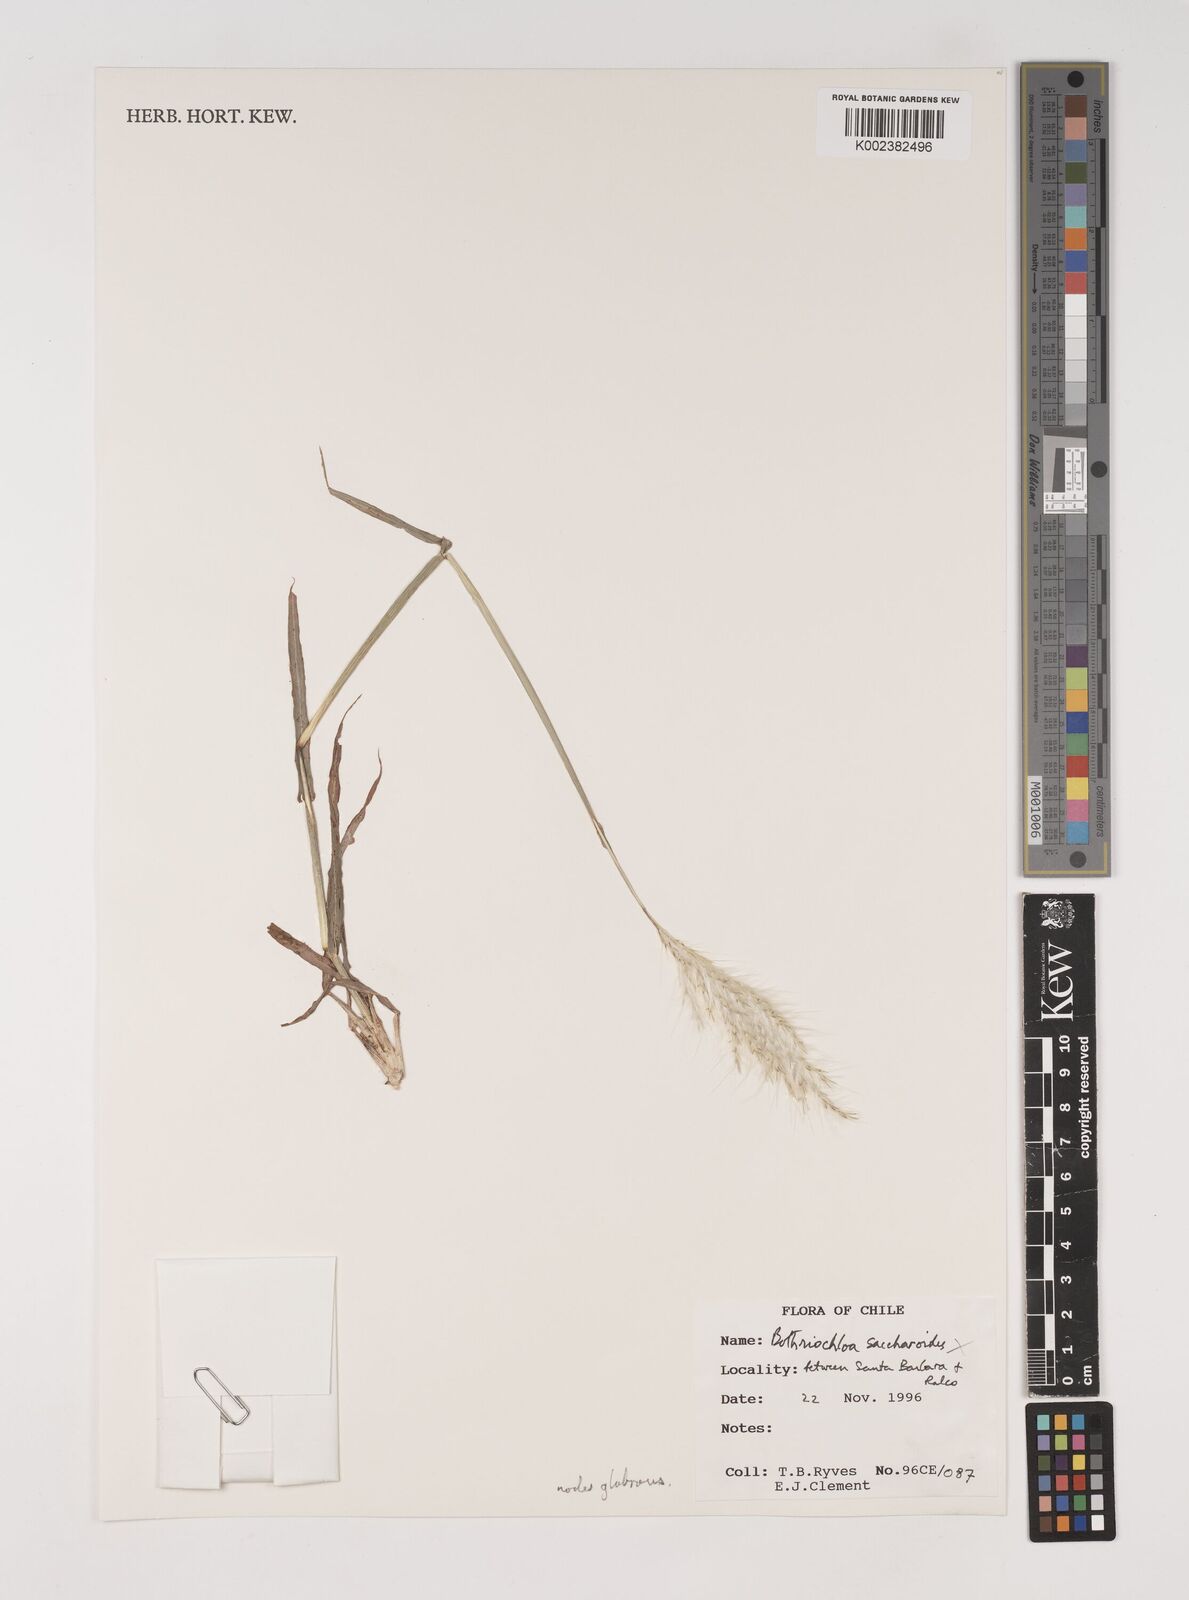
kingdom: Plantae
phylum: Tracheophyta
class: Liliopsida
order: Poales
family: Poaceae
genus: Bothriochloa
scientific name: Bothriochloa laguroides
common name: Silver bluestem
